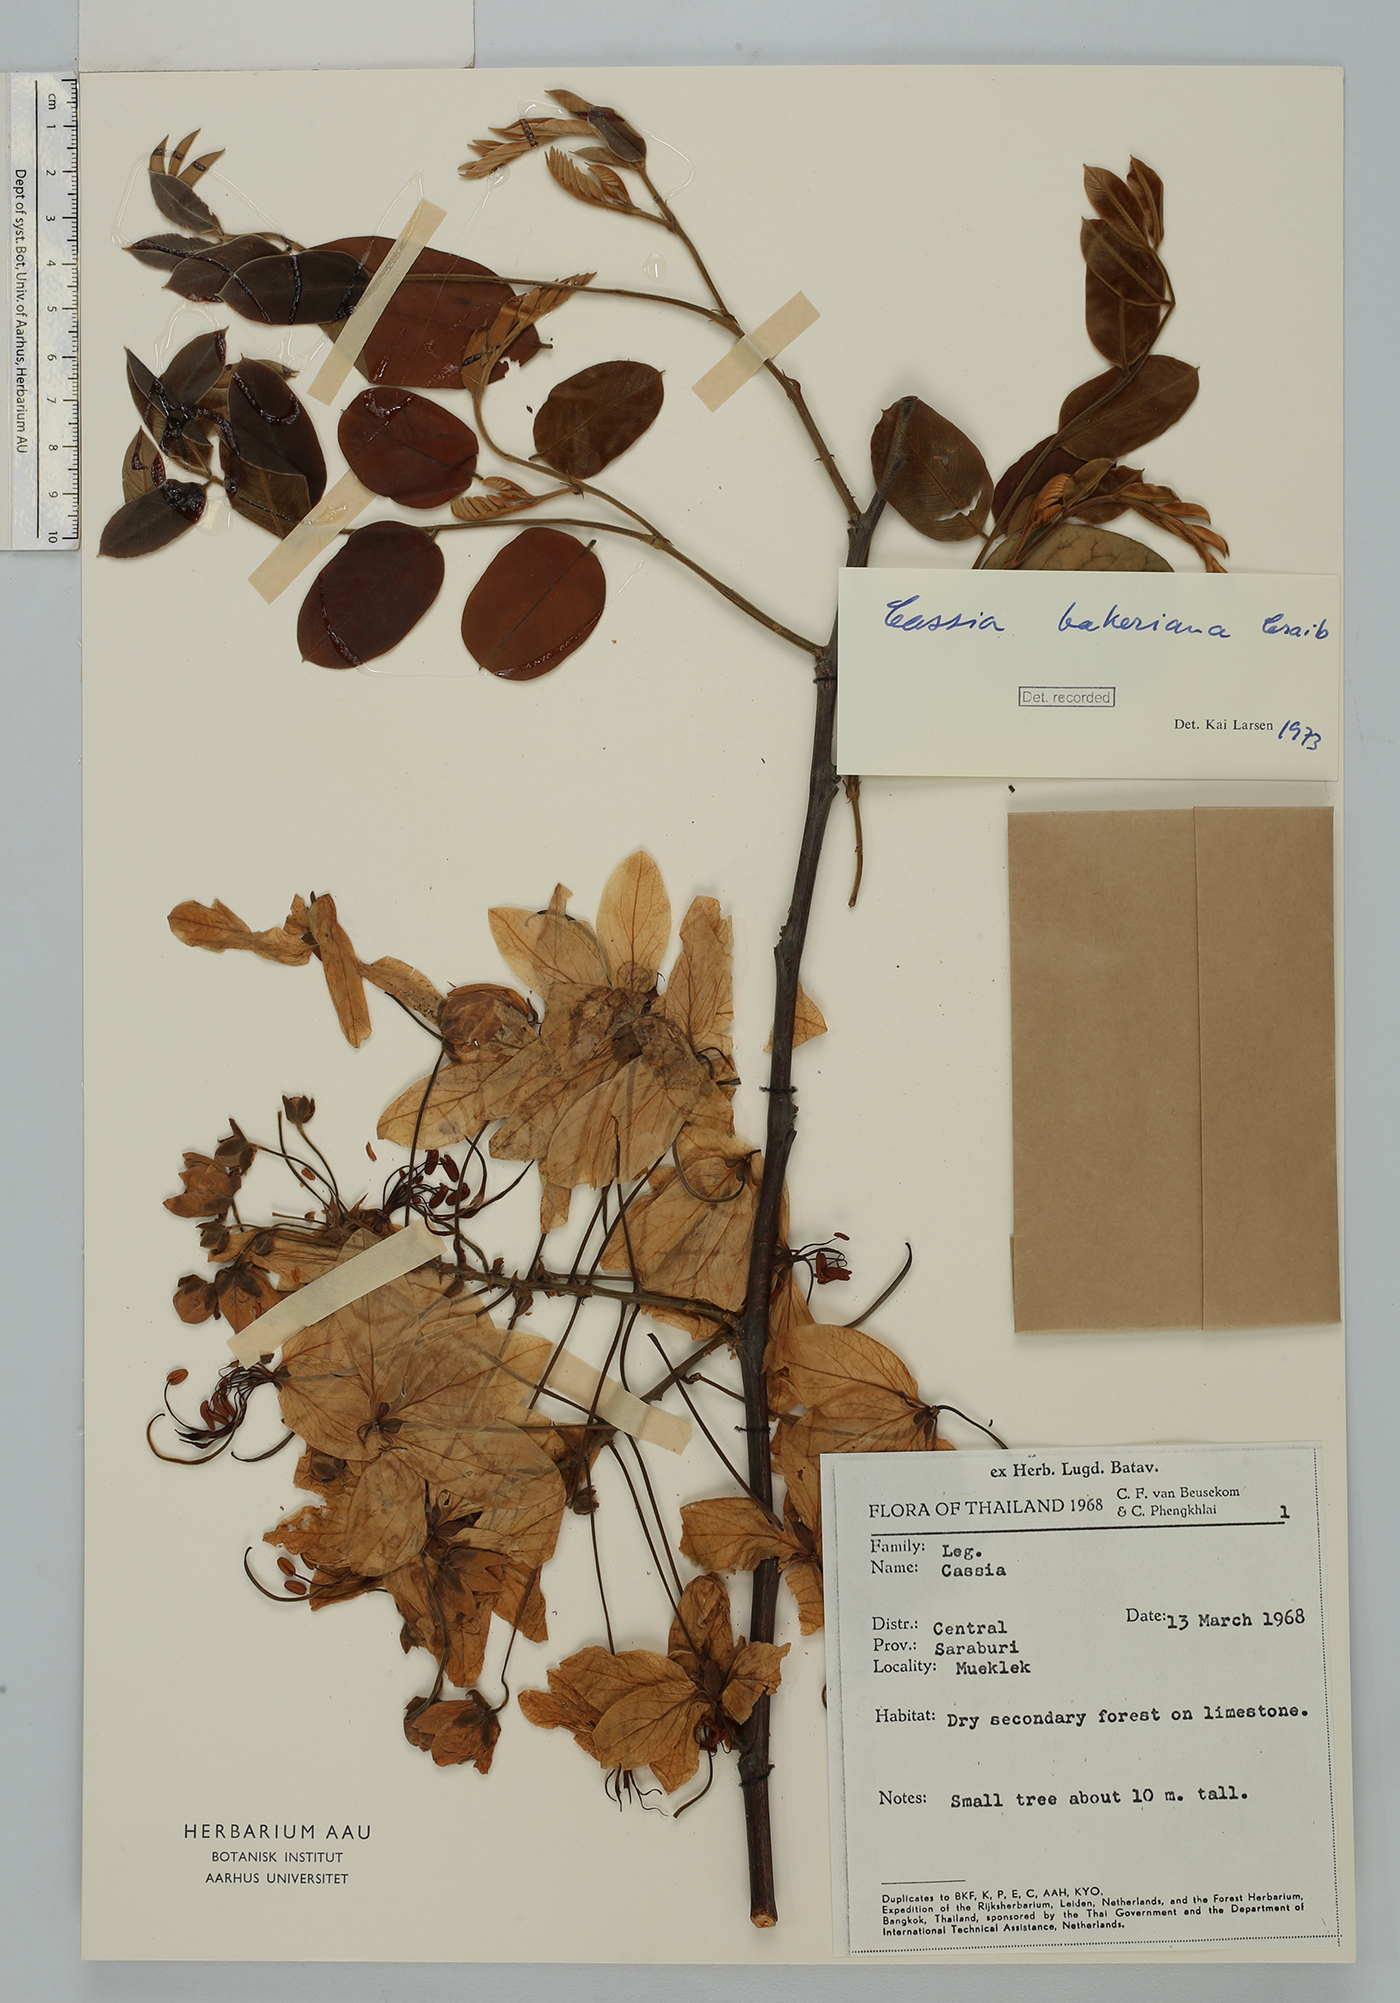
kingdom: Plantae
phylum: Tracheophyta
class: Magnoliopsida
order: Fabales
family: Fabaceae
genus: Cassia
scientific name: Cassia bakeriana
